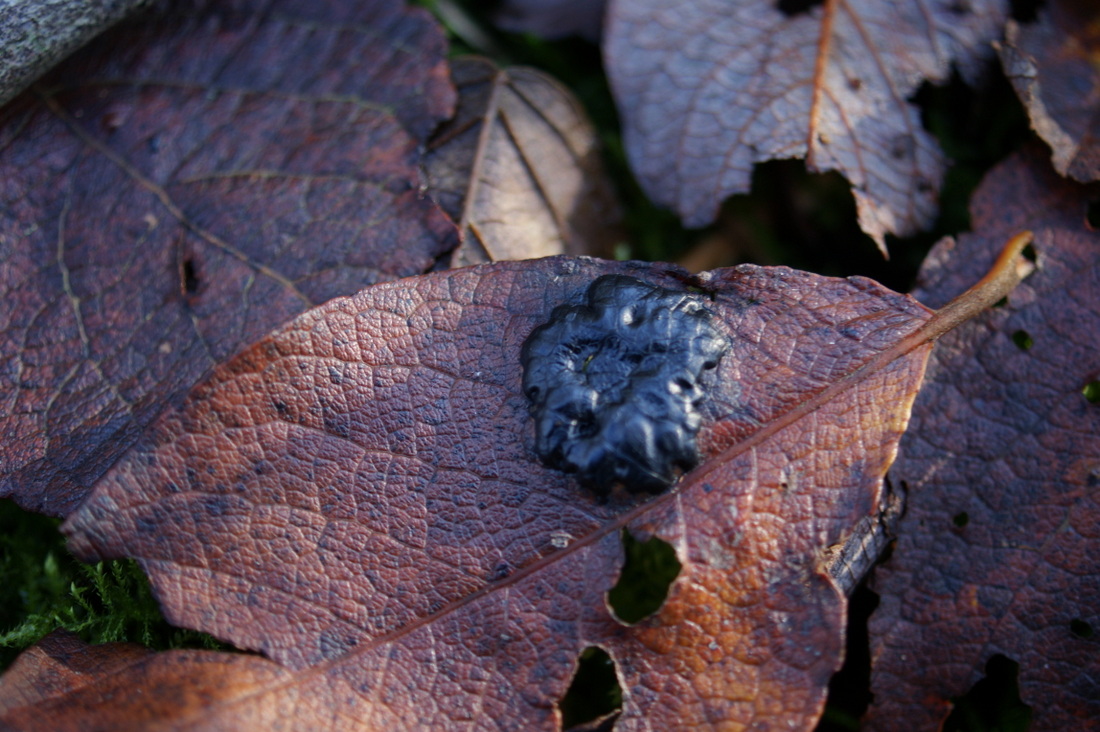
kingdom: Fungi
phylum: Ascomycota
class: Leotiomycetes
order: Rhytismatales
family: Rhytismataceae
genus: Rhytisma
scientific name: Rhytisma salicinum
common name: pile-rynkeplet
